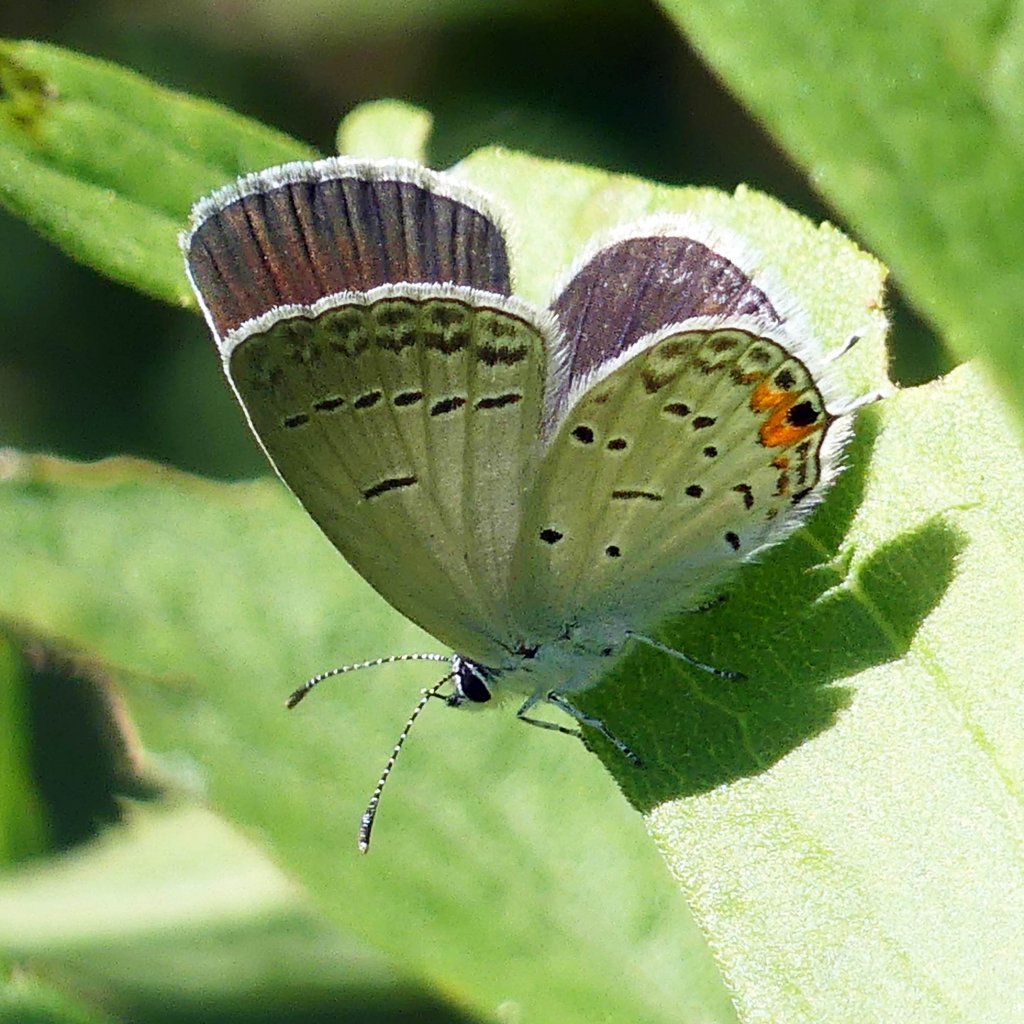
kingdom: Animalia
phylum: Arthropoda
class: Insecta
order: Lepidoptera
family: Lycaenidae
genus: Elkalyce
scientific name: Elkalyce comyntas
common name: Eastern Tailed-Blue
